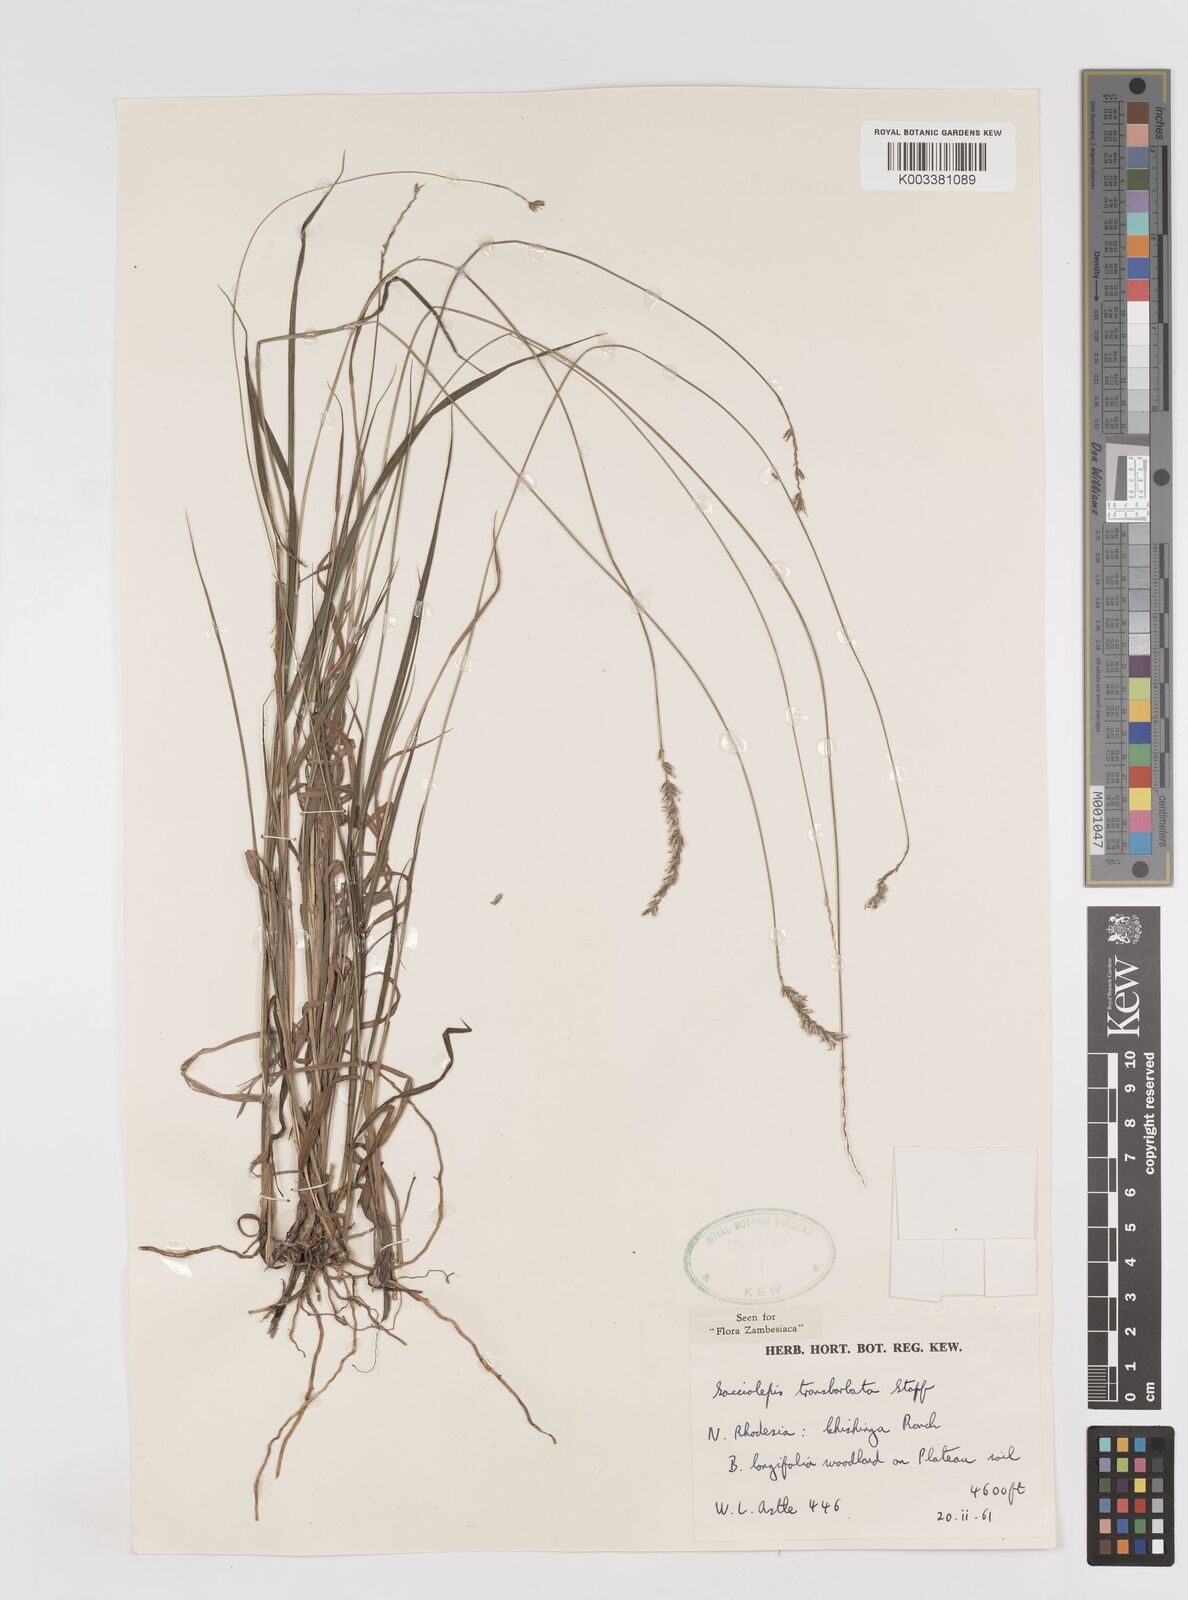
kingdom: Plantae
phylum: Tracheophyta
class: Liliopsida
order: Poales
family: Poaceae
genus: Sacciolepis
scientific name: Sacciolepis transbarbata
